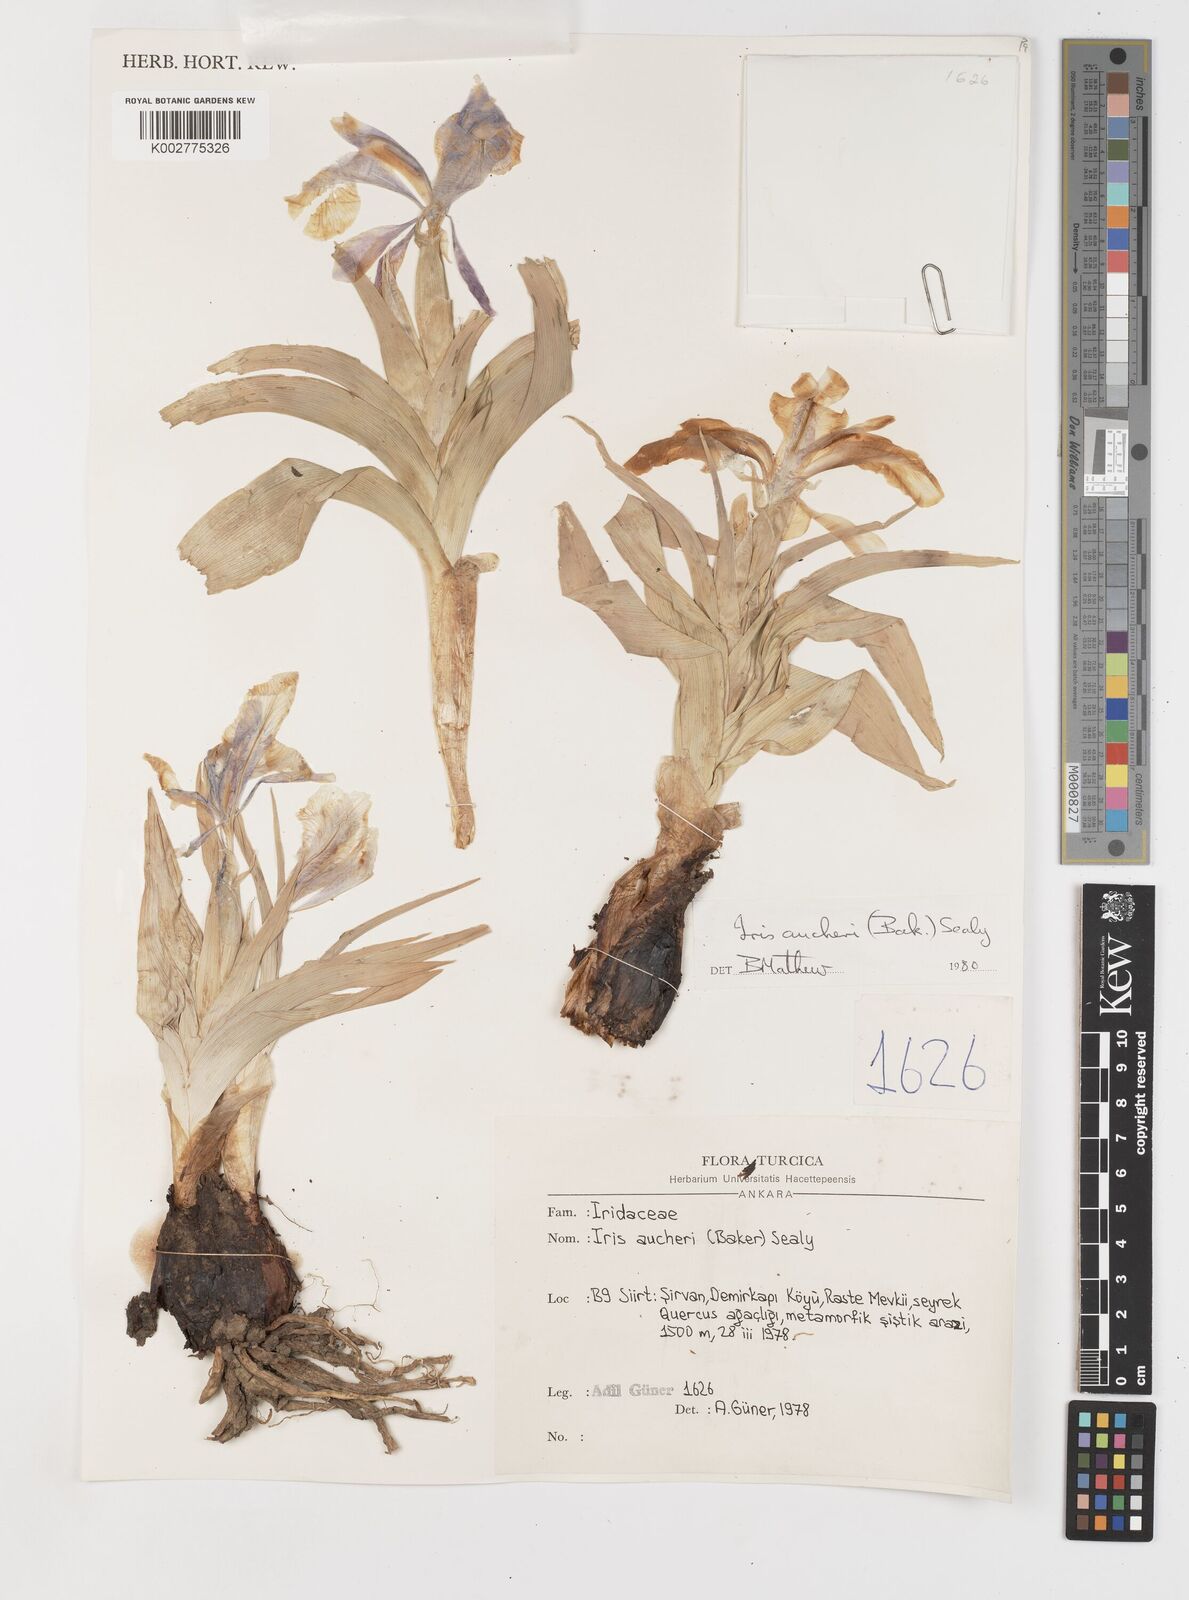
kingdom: Plantae
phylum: Tracheophyta
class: Liliopsida
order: Asparagales
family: Iridaceae
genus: Iris
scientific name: Iris aucheri
